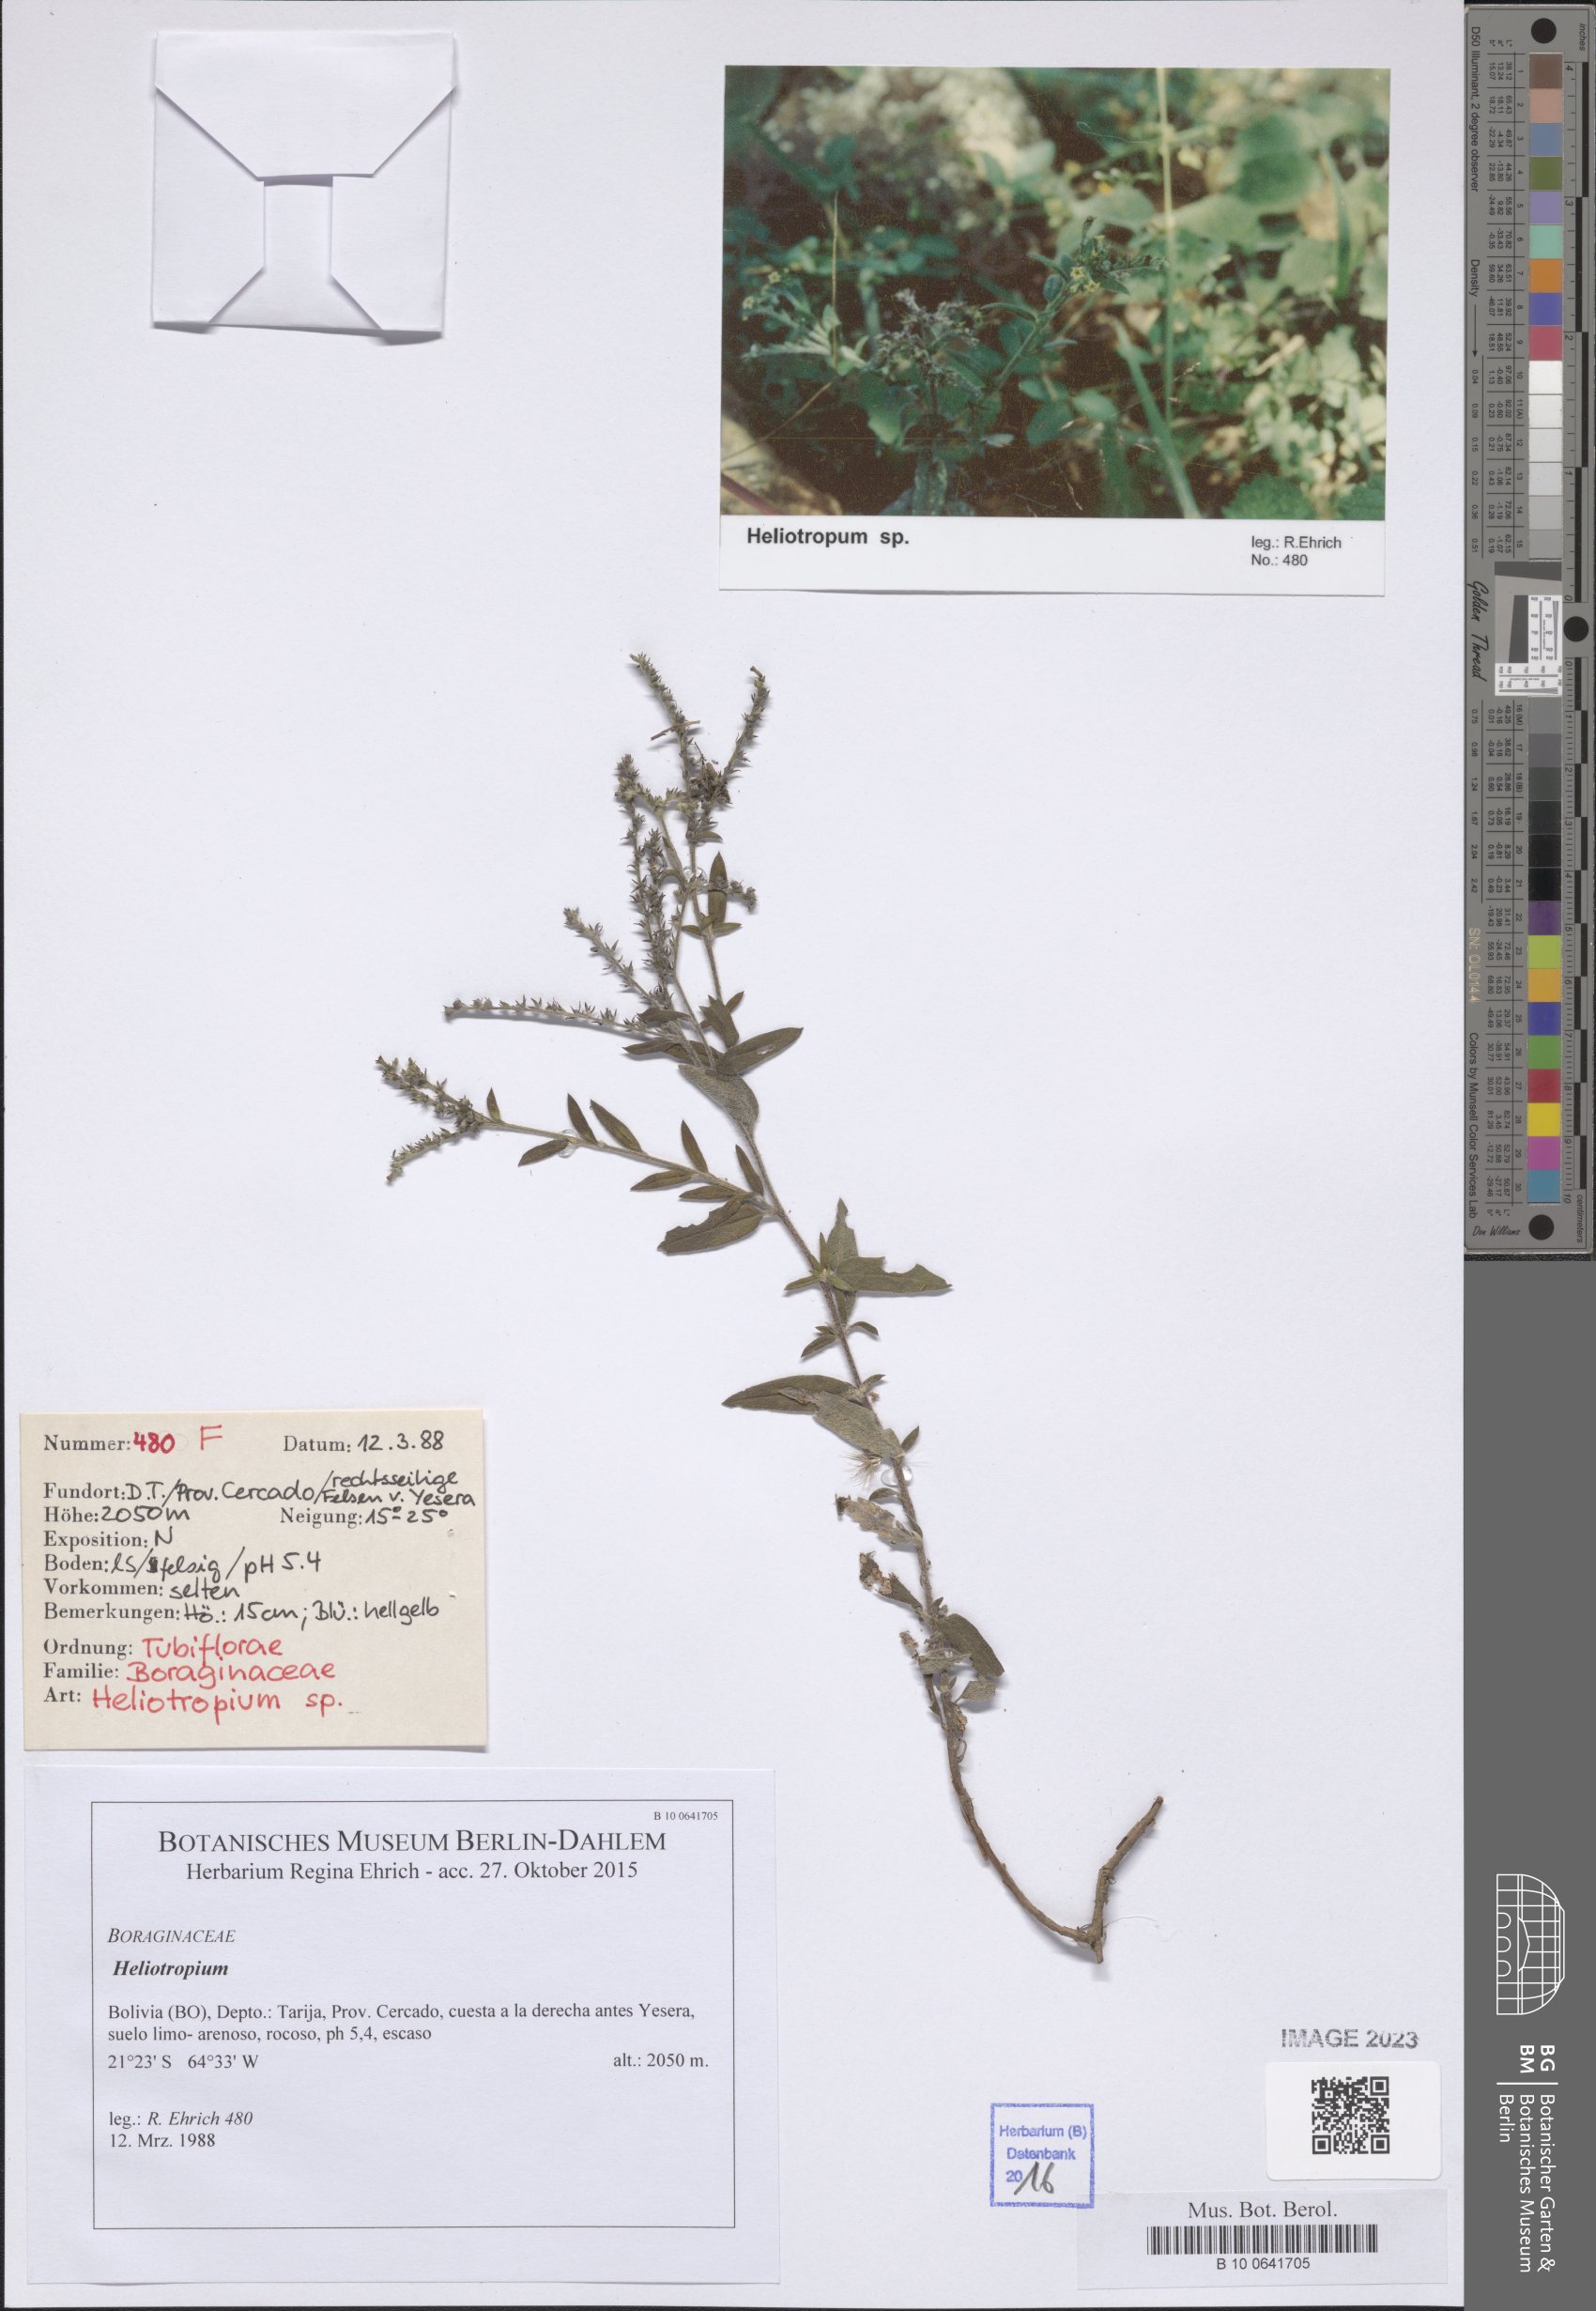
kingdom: Plantae
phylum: Tracheophyta
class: Magnoliopsida
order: Boraginales
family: Heliotropiaceae
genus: Heliotropium
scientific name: Heliotropium
